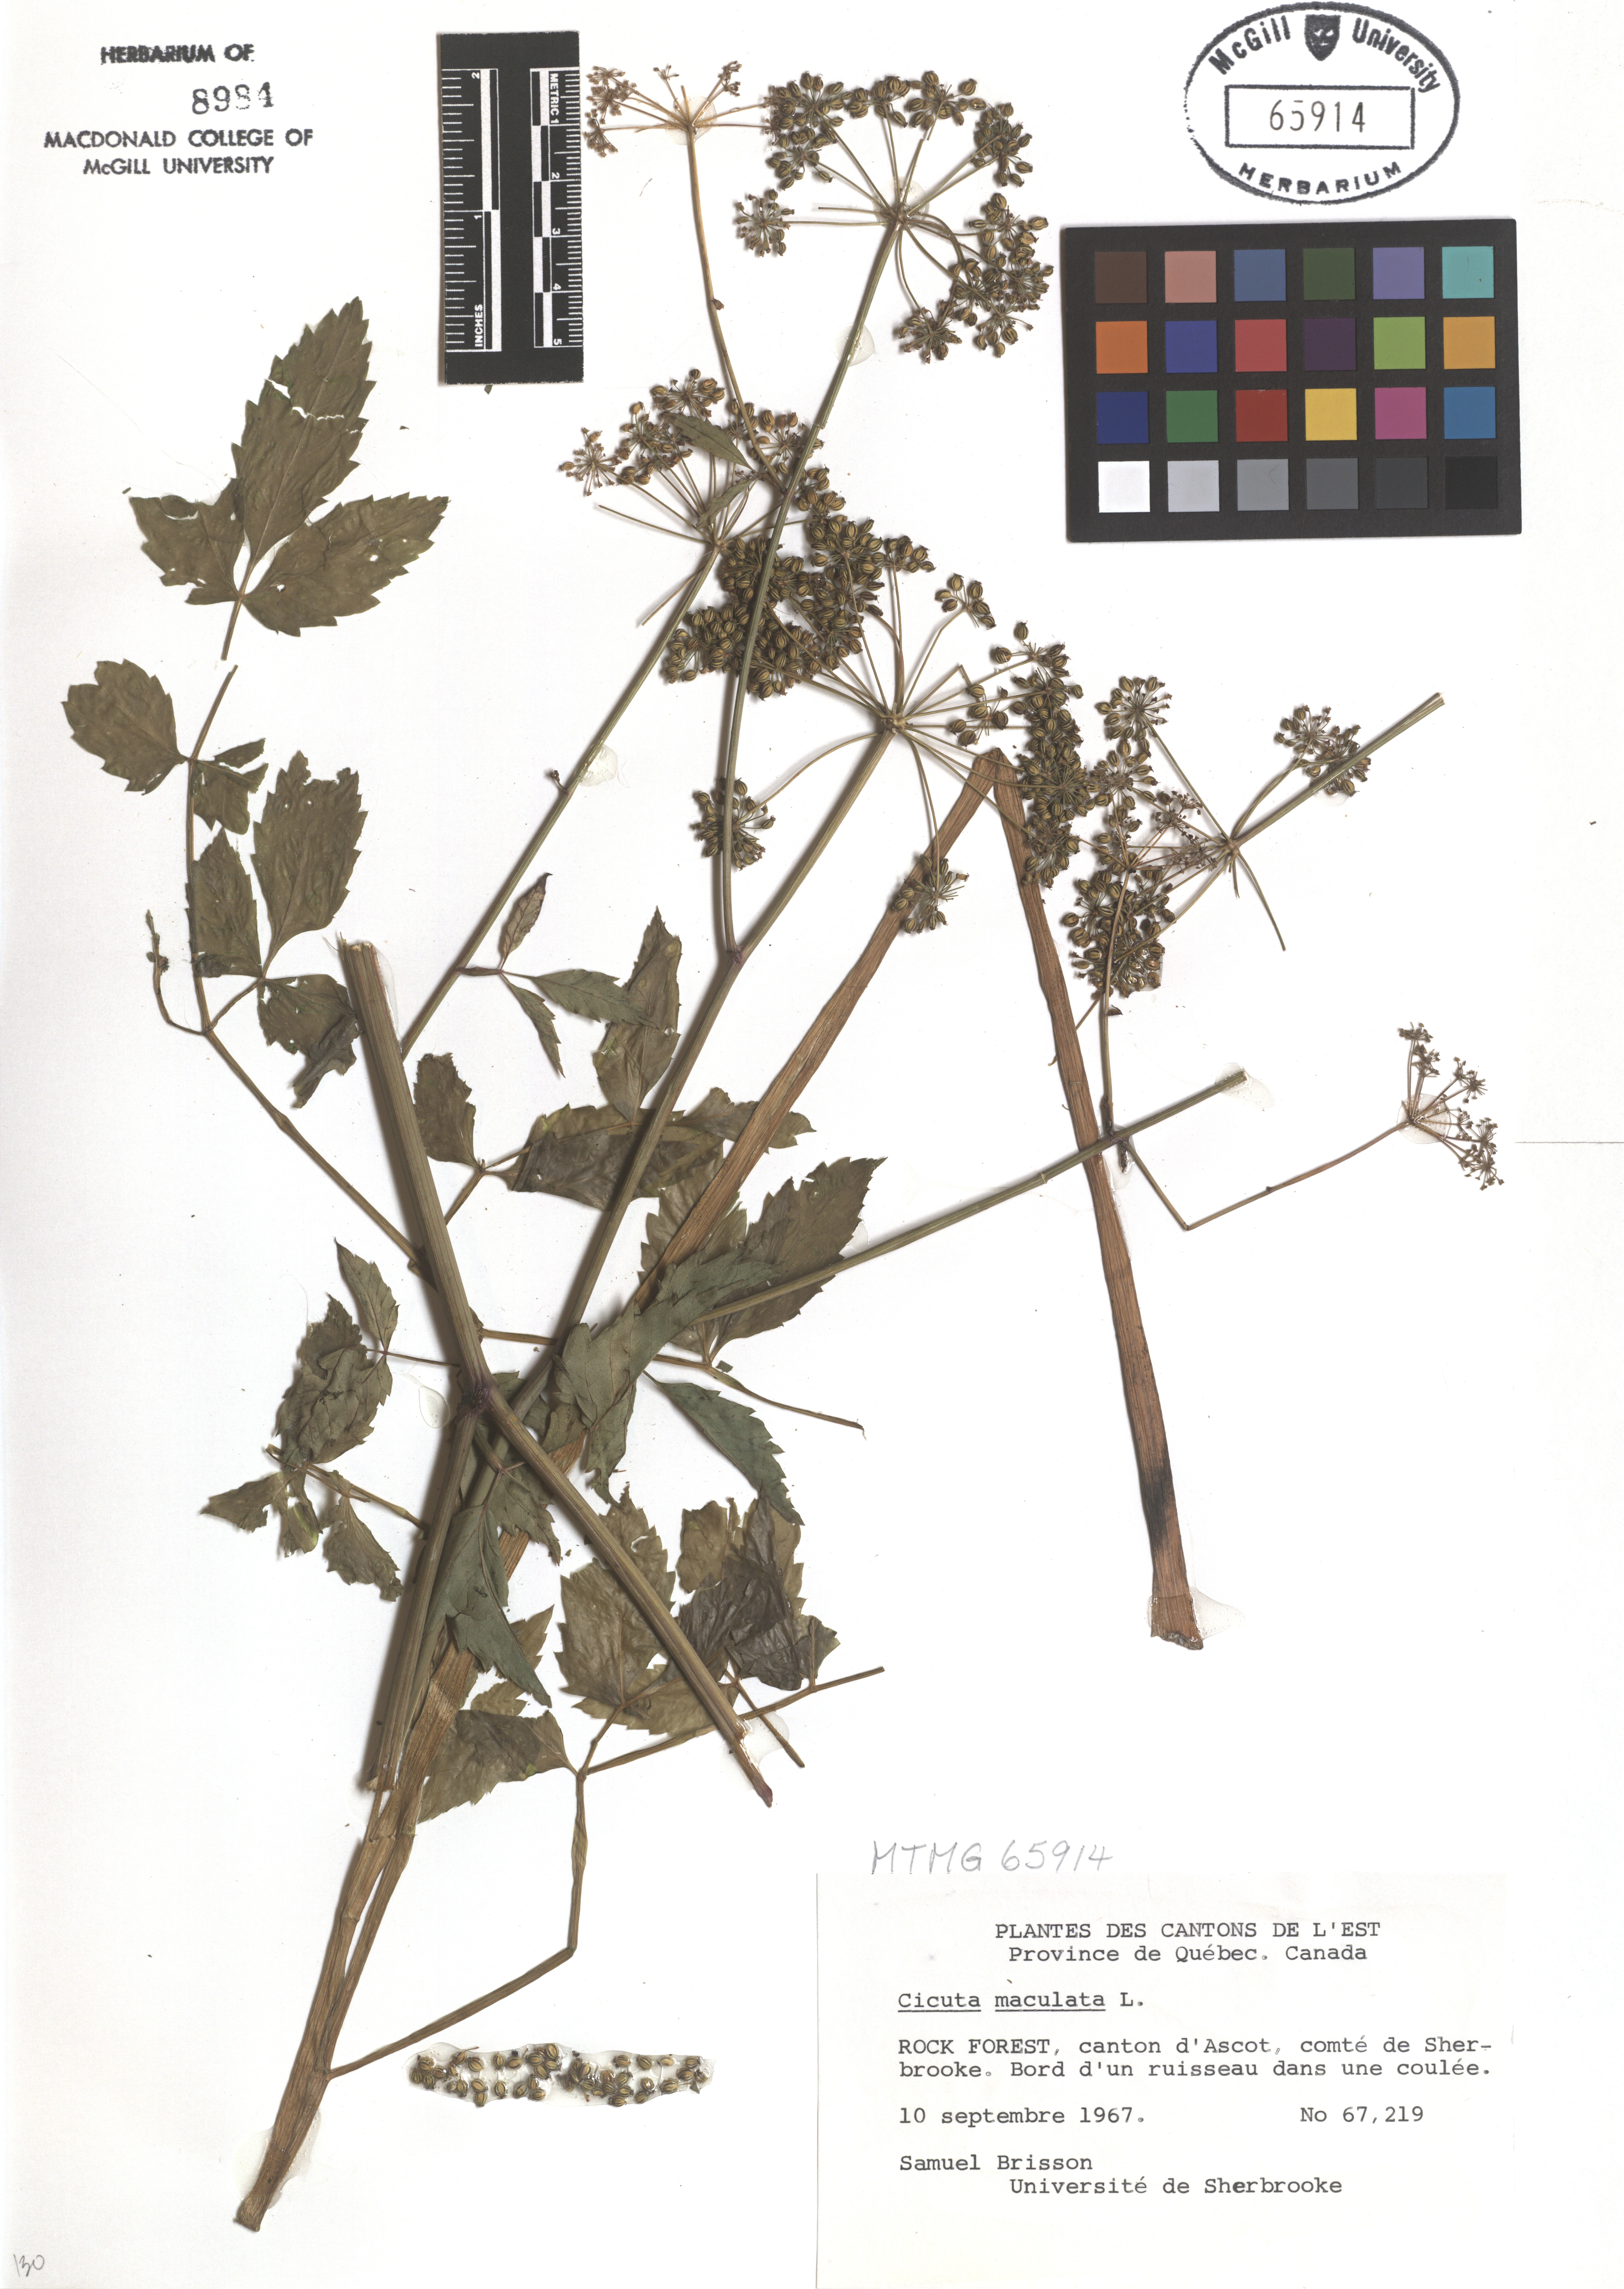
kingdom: Plantae
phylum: Tracheophyta
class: Magnoliopsida
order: Apiales
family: Apiaceae
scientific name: Apiaceae
